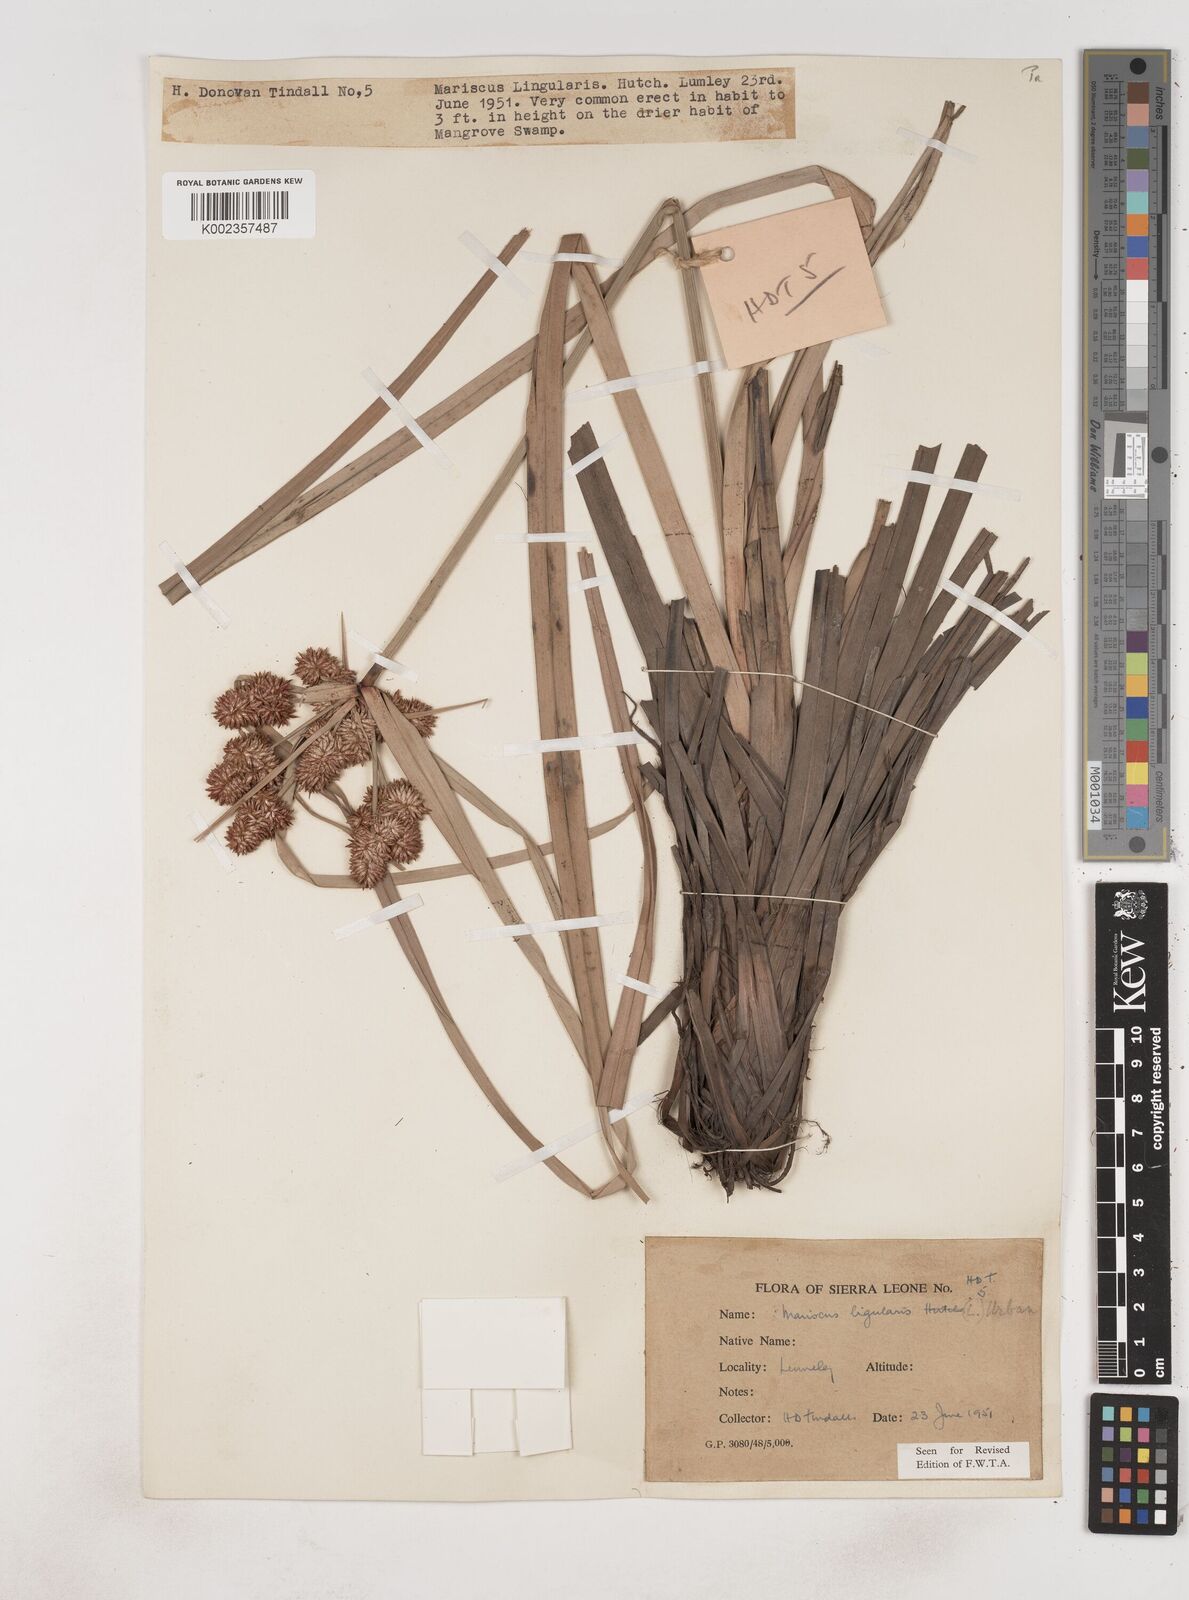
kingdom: Plantae
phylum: Tracheophyta
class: Liliopsida
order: Poales
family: Cyperaceae
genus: Cyperus
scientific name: Cyperus ligularis
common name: Swamp flat sedge
